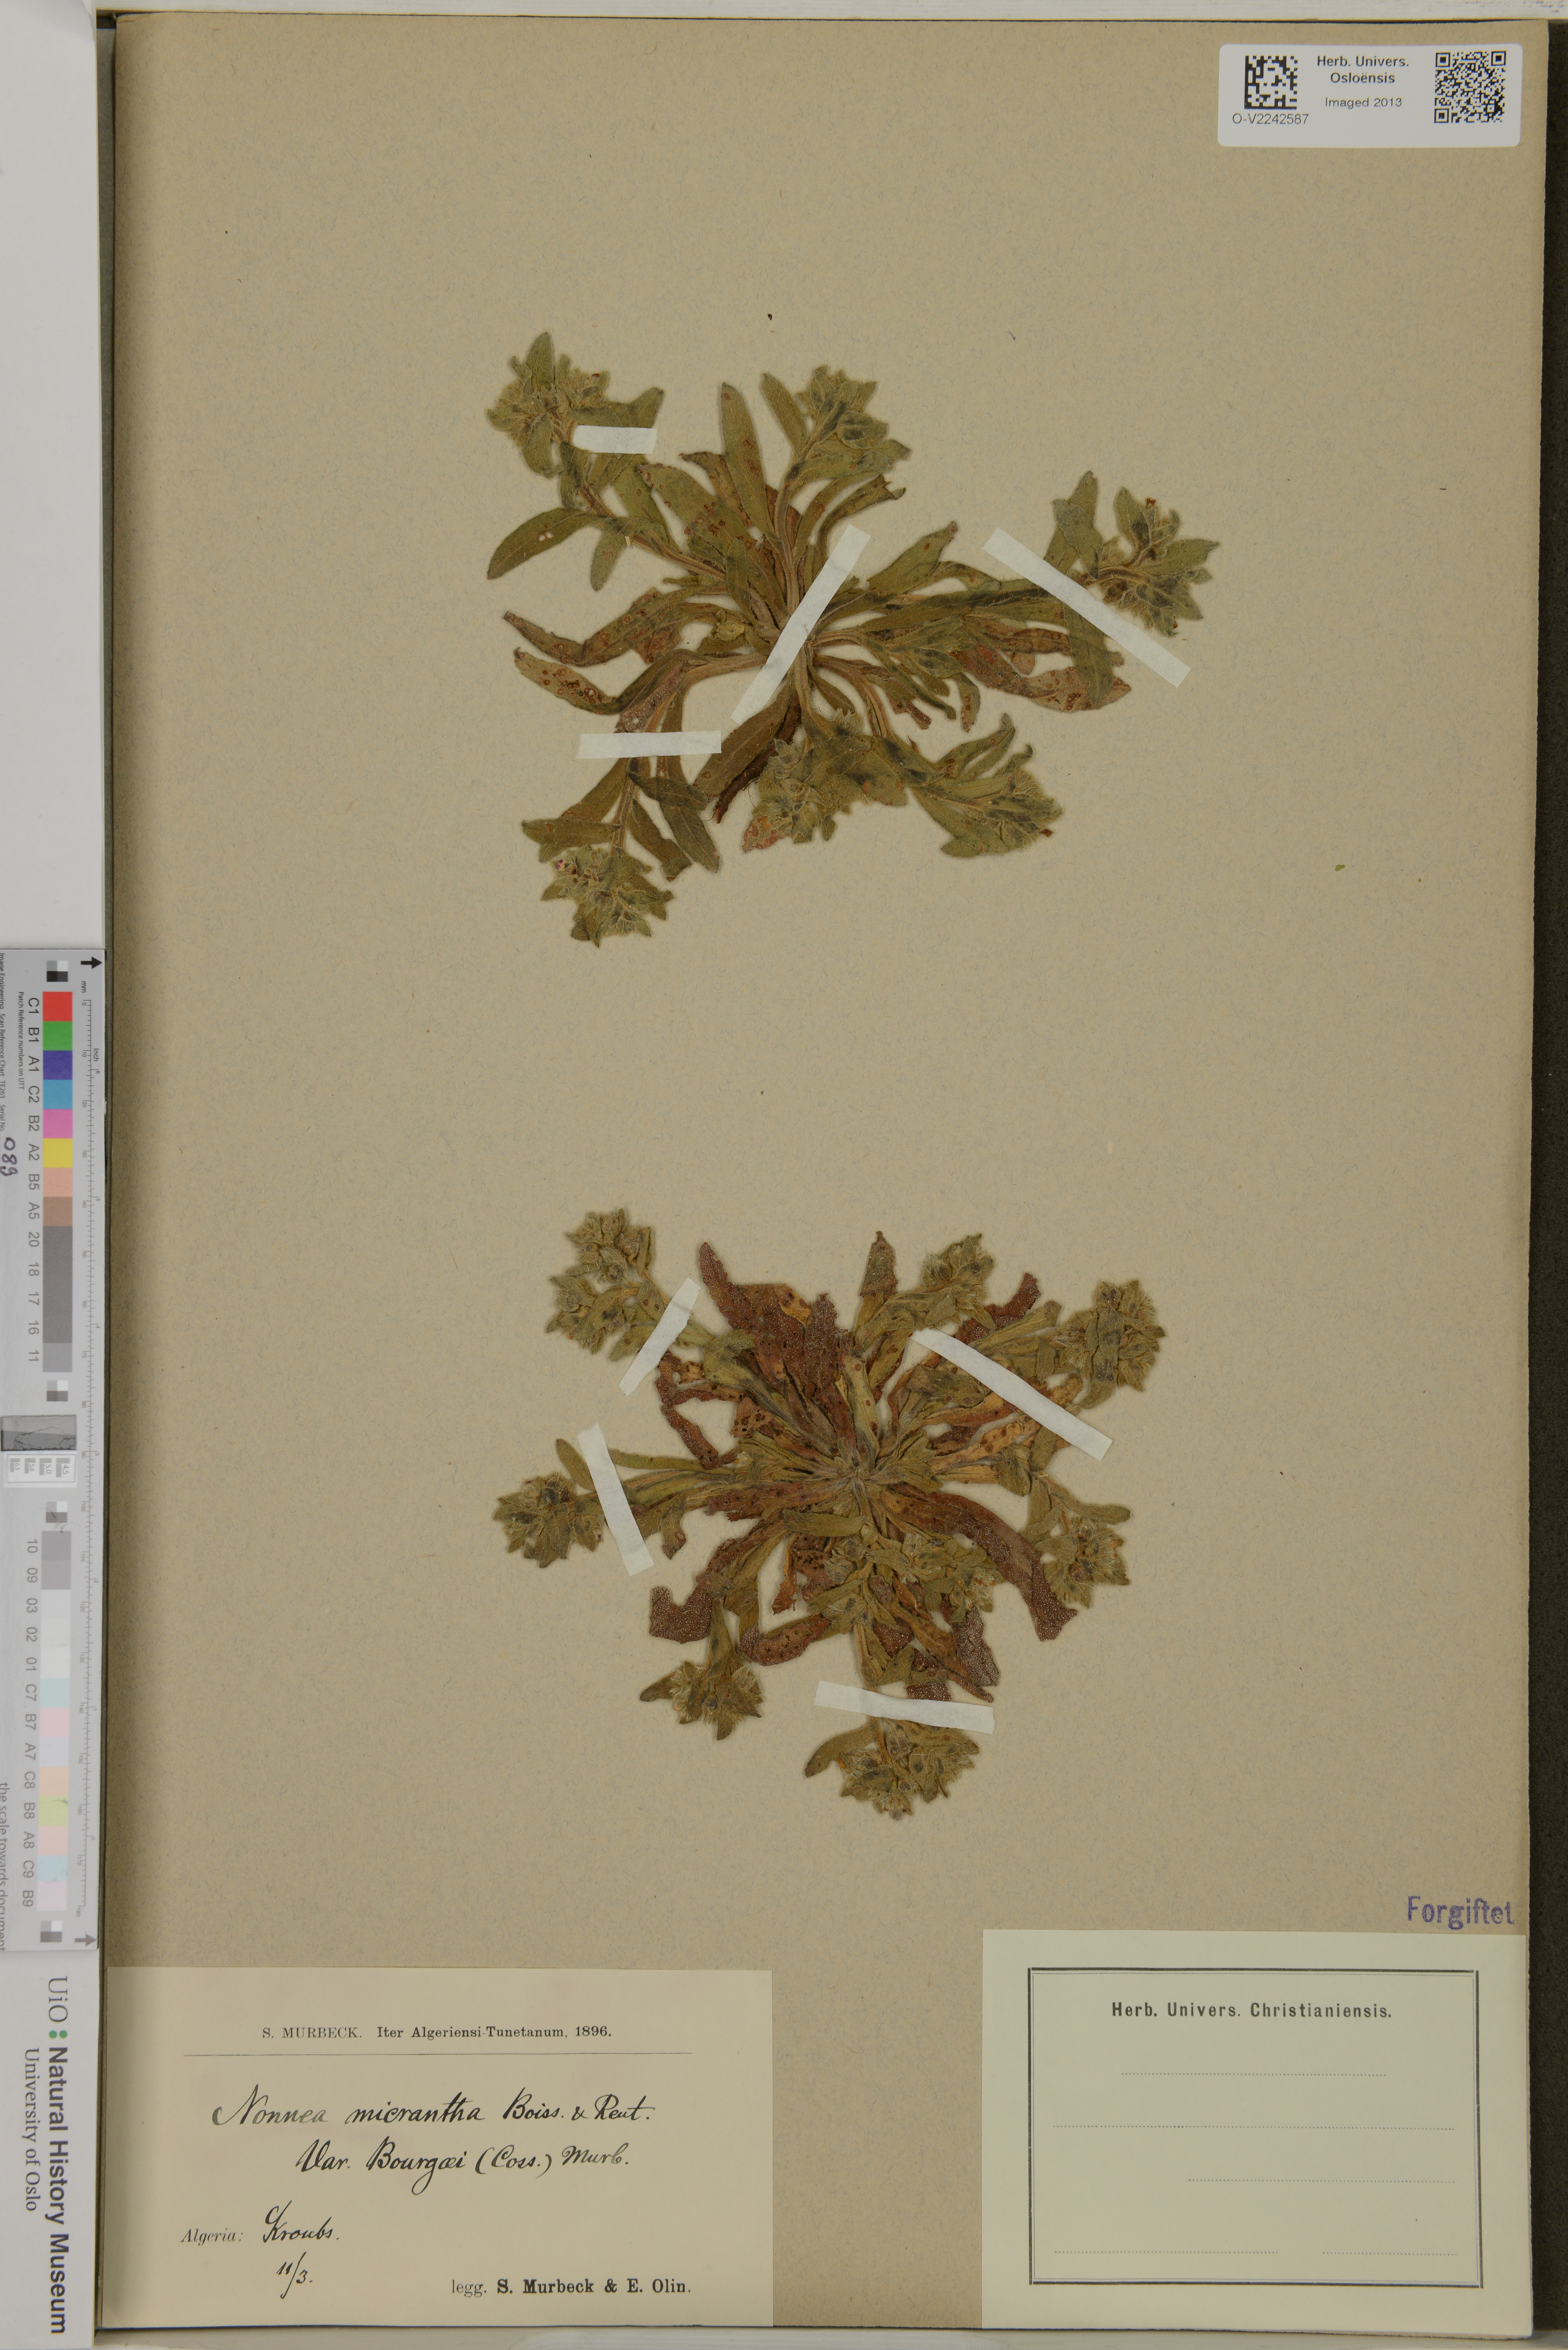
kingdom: Plantae
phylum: Tracheophyta
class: Magnoliopsida
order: Boraginales
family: Boraginaceae
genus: Nonea
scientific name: Nonea micrantha
